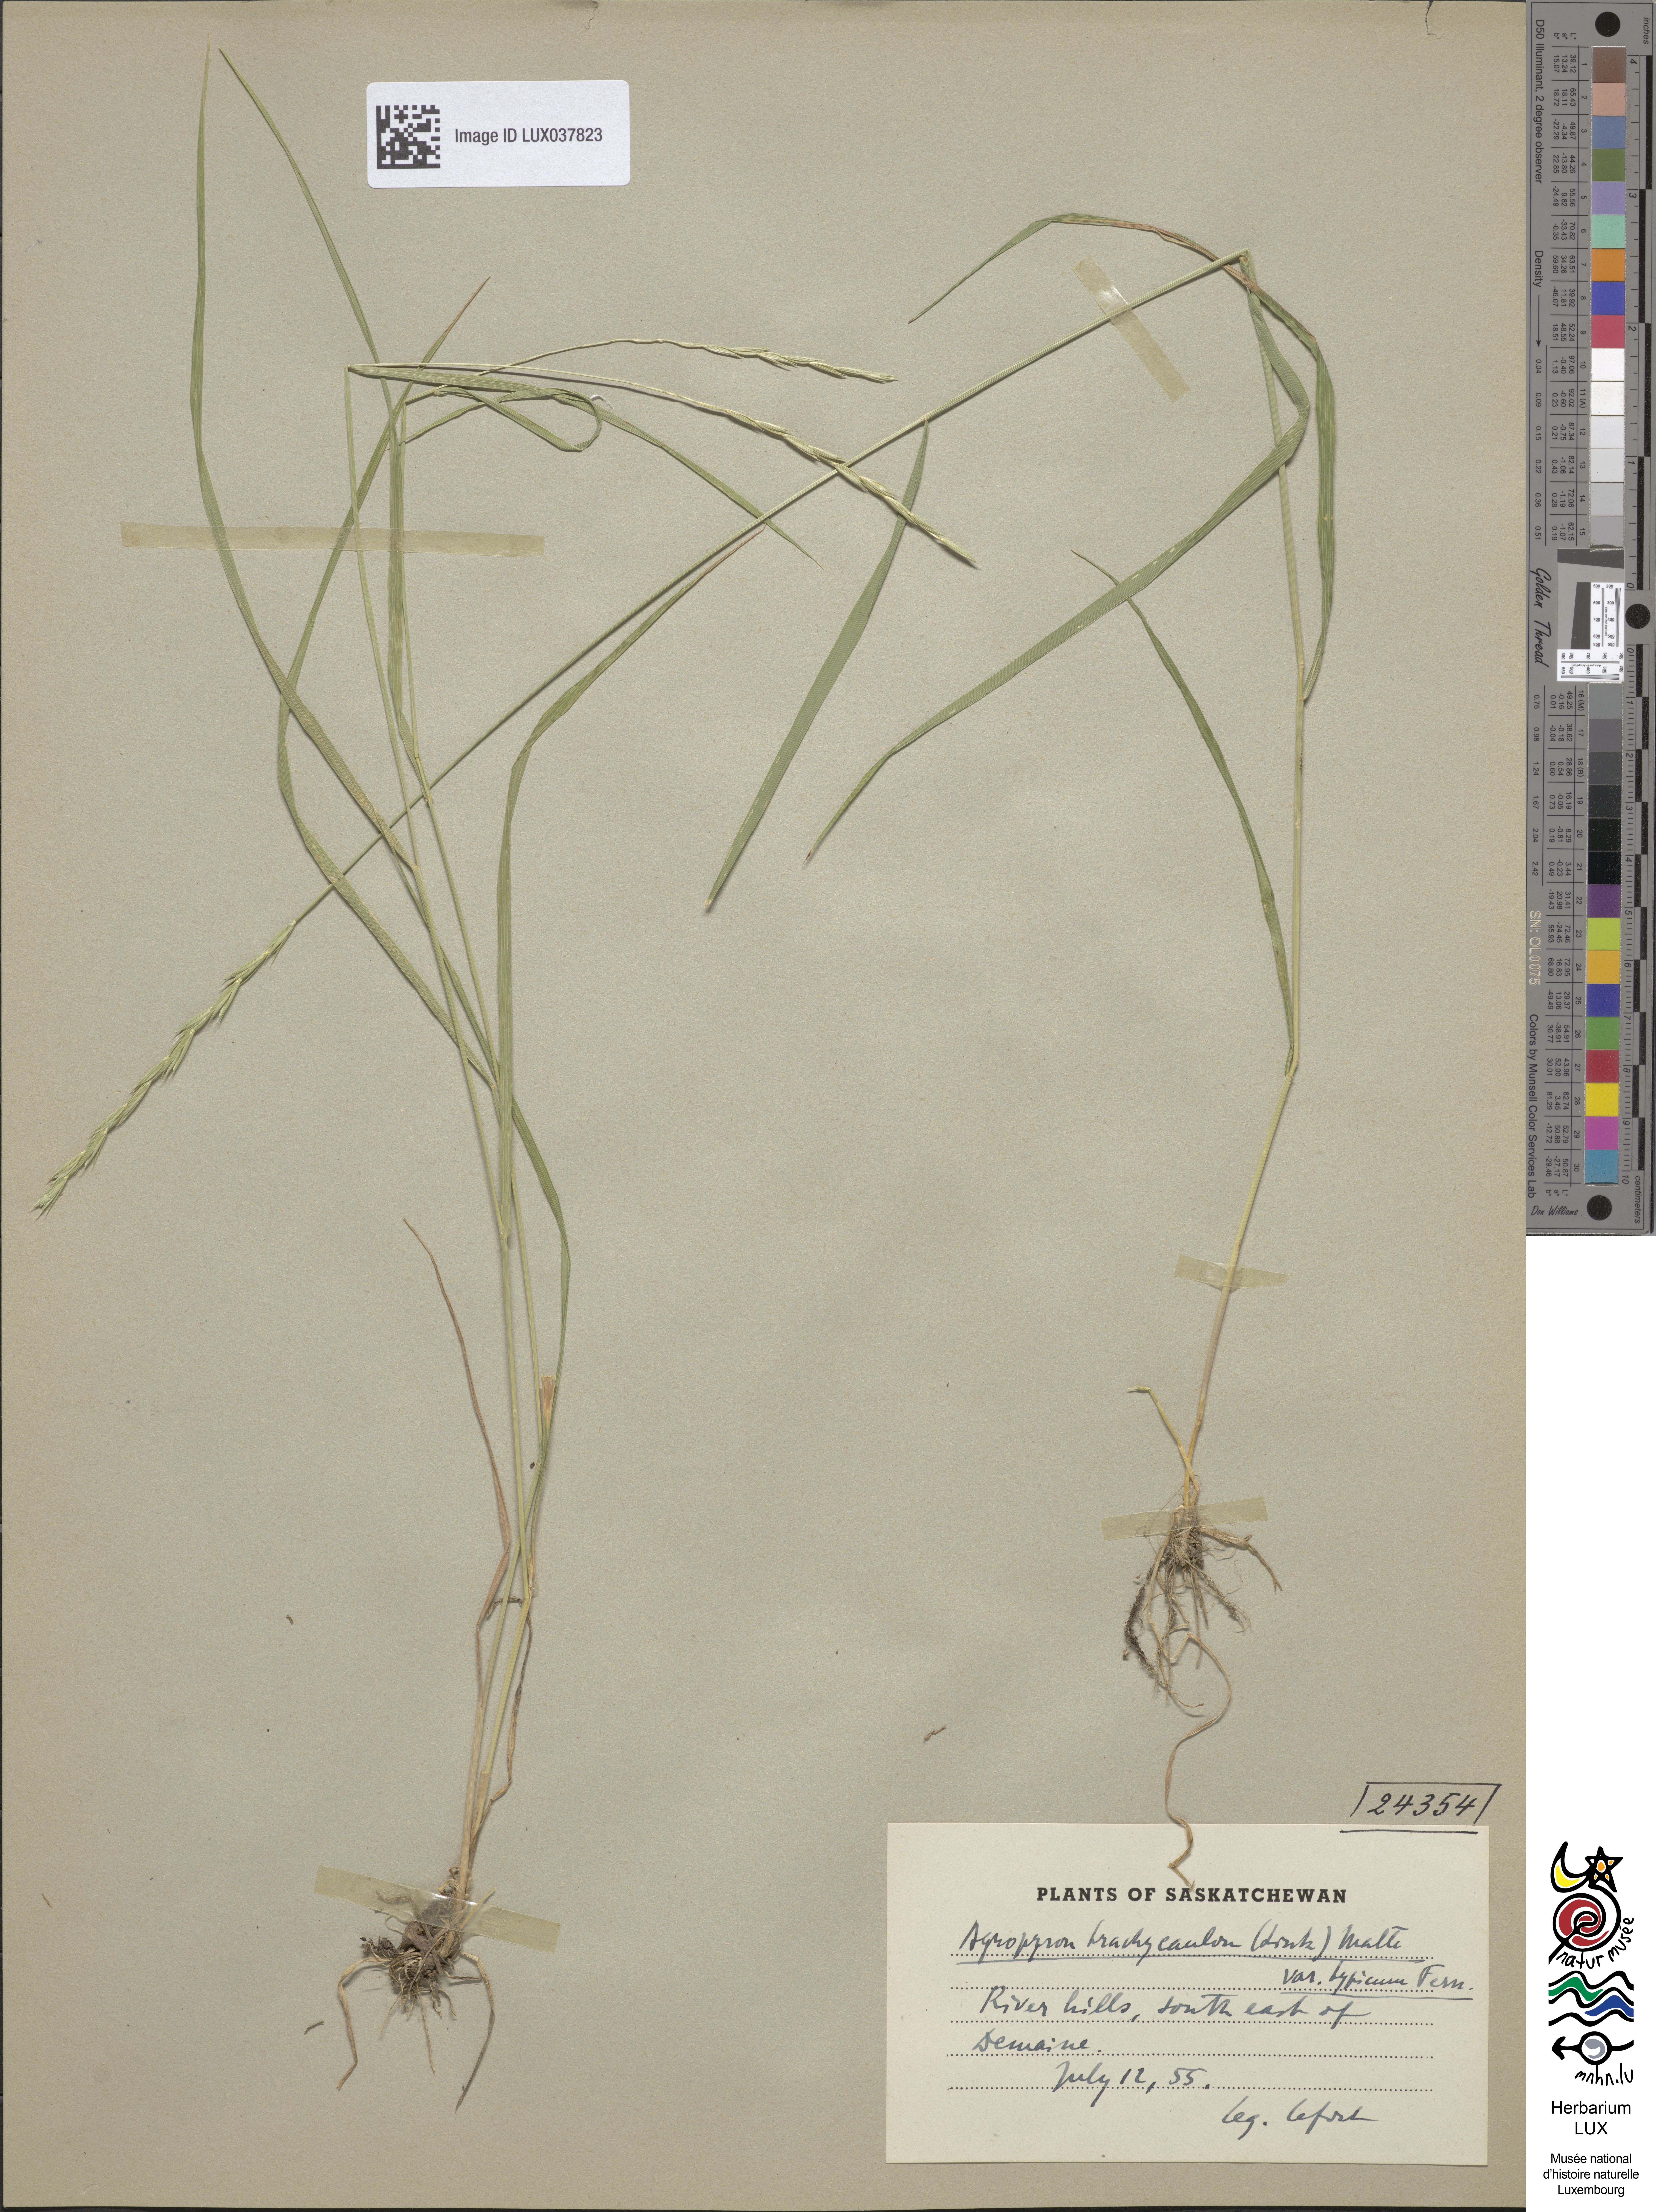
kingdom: Plantae
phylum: Tracheophyta
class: Liliopsida
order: Poales
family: Poaceae
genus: Elymus
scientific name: Elymus violaceus
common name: Arctic wheatgrass
